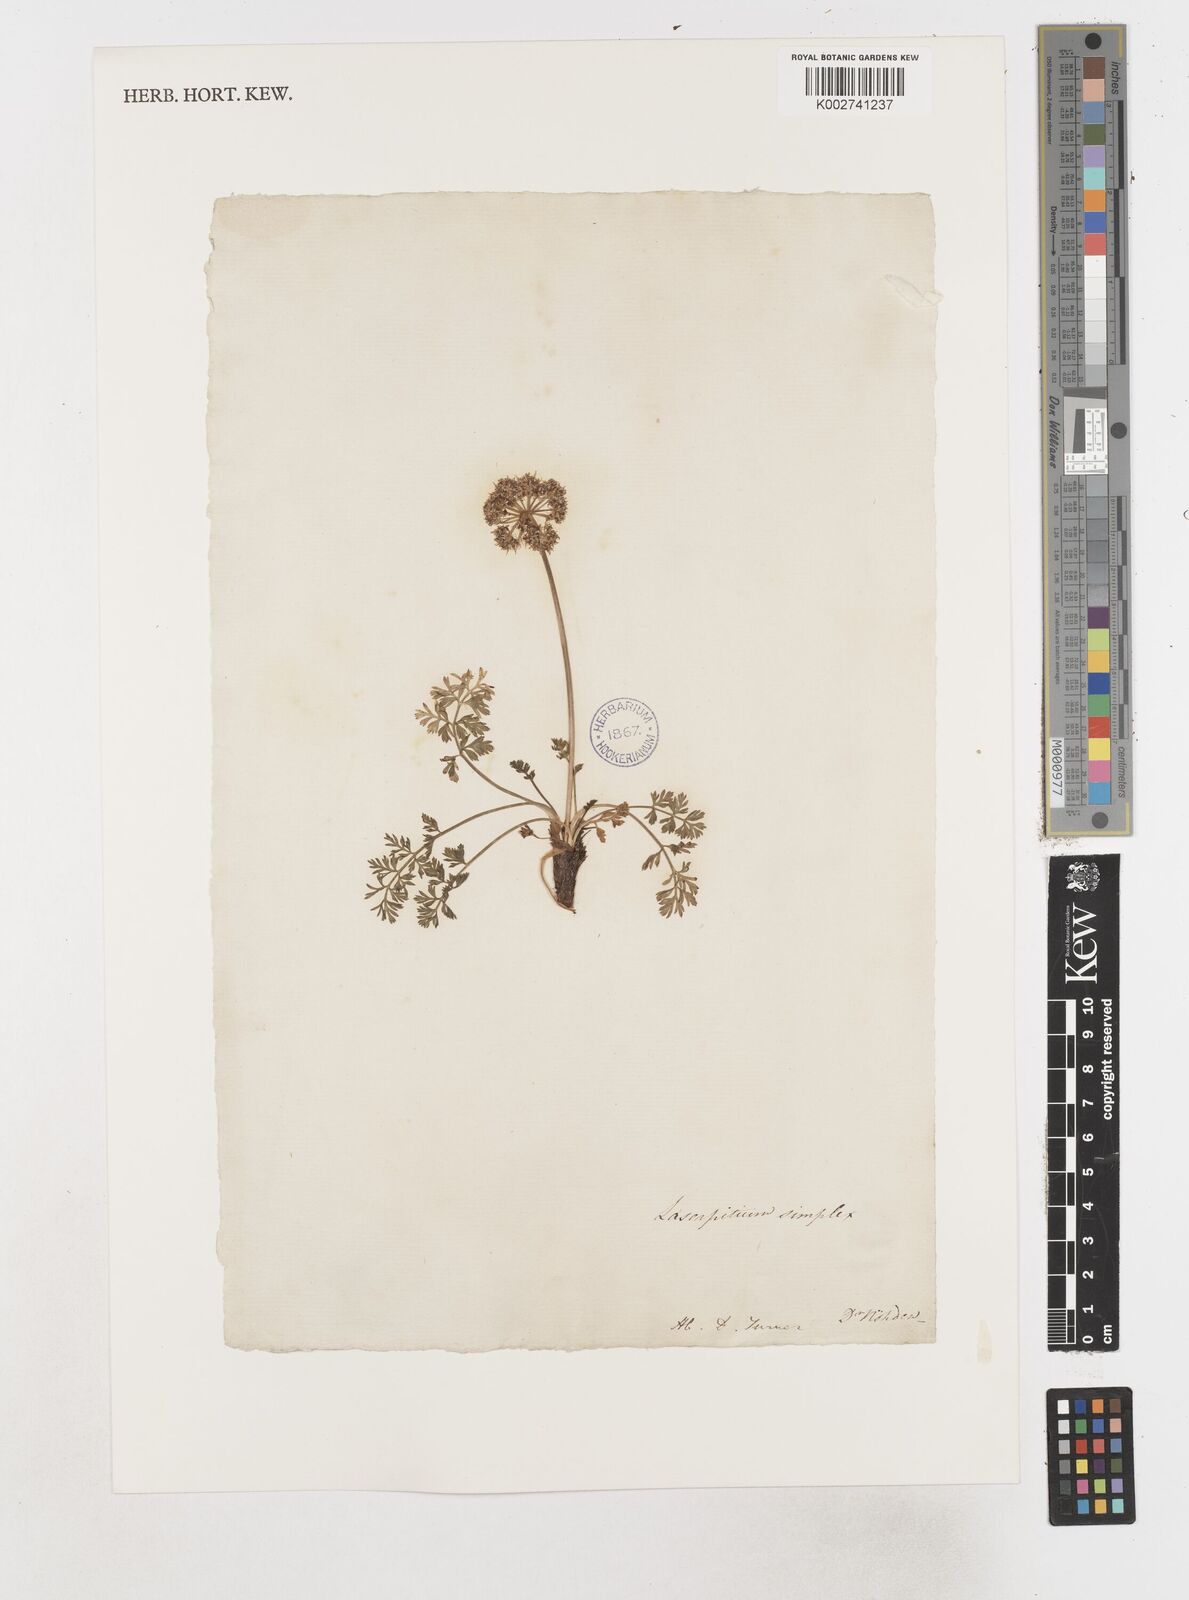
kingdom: Plantae
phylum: Tracheophyta
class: Magnoliopsida
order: Apiales
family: Apiaceae
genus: Pachypleurum
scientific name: Pachypleurum mutellinoides
